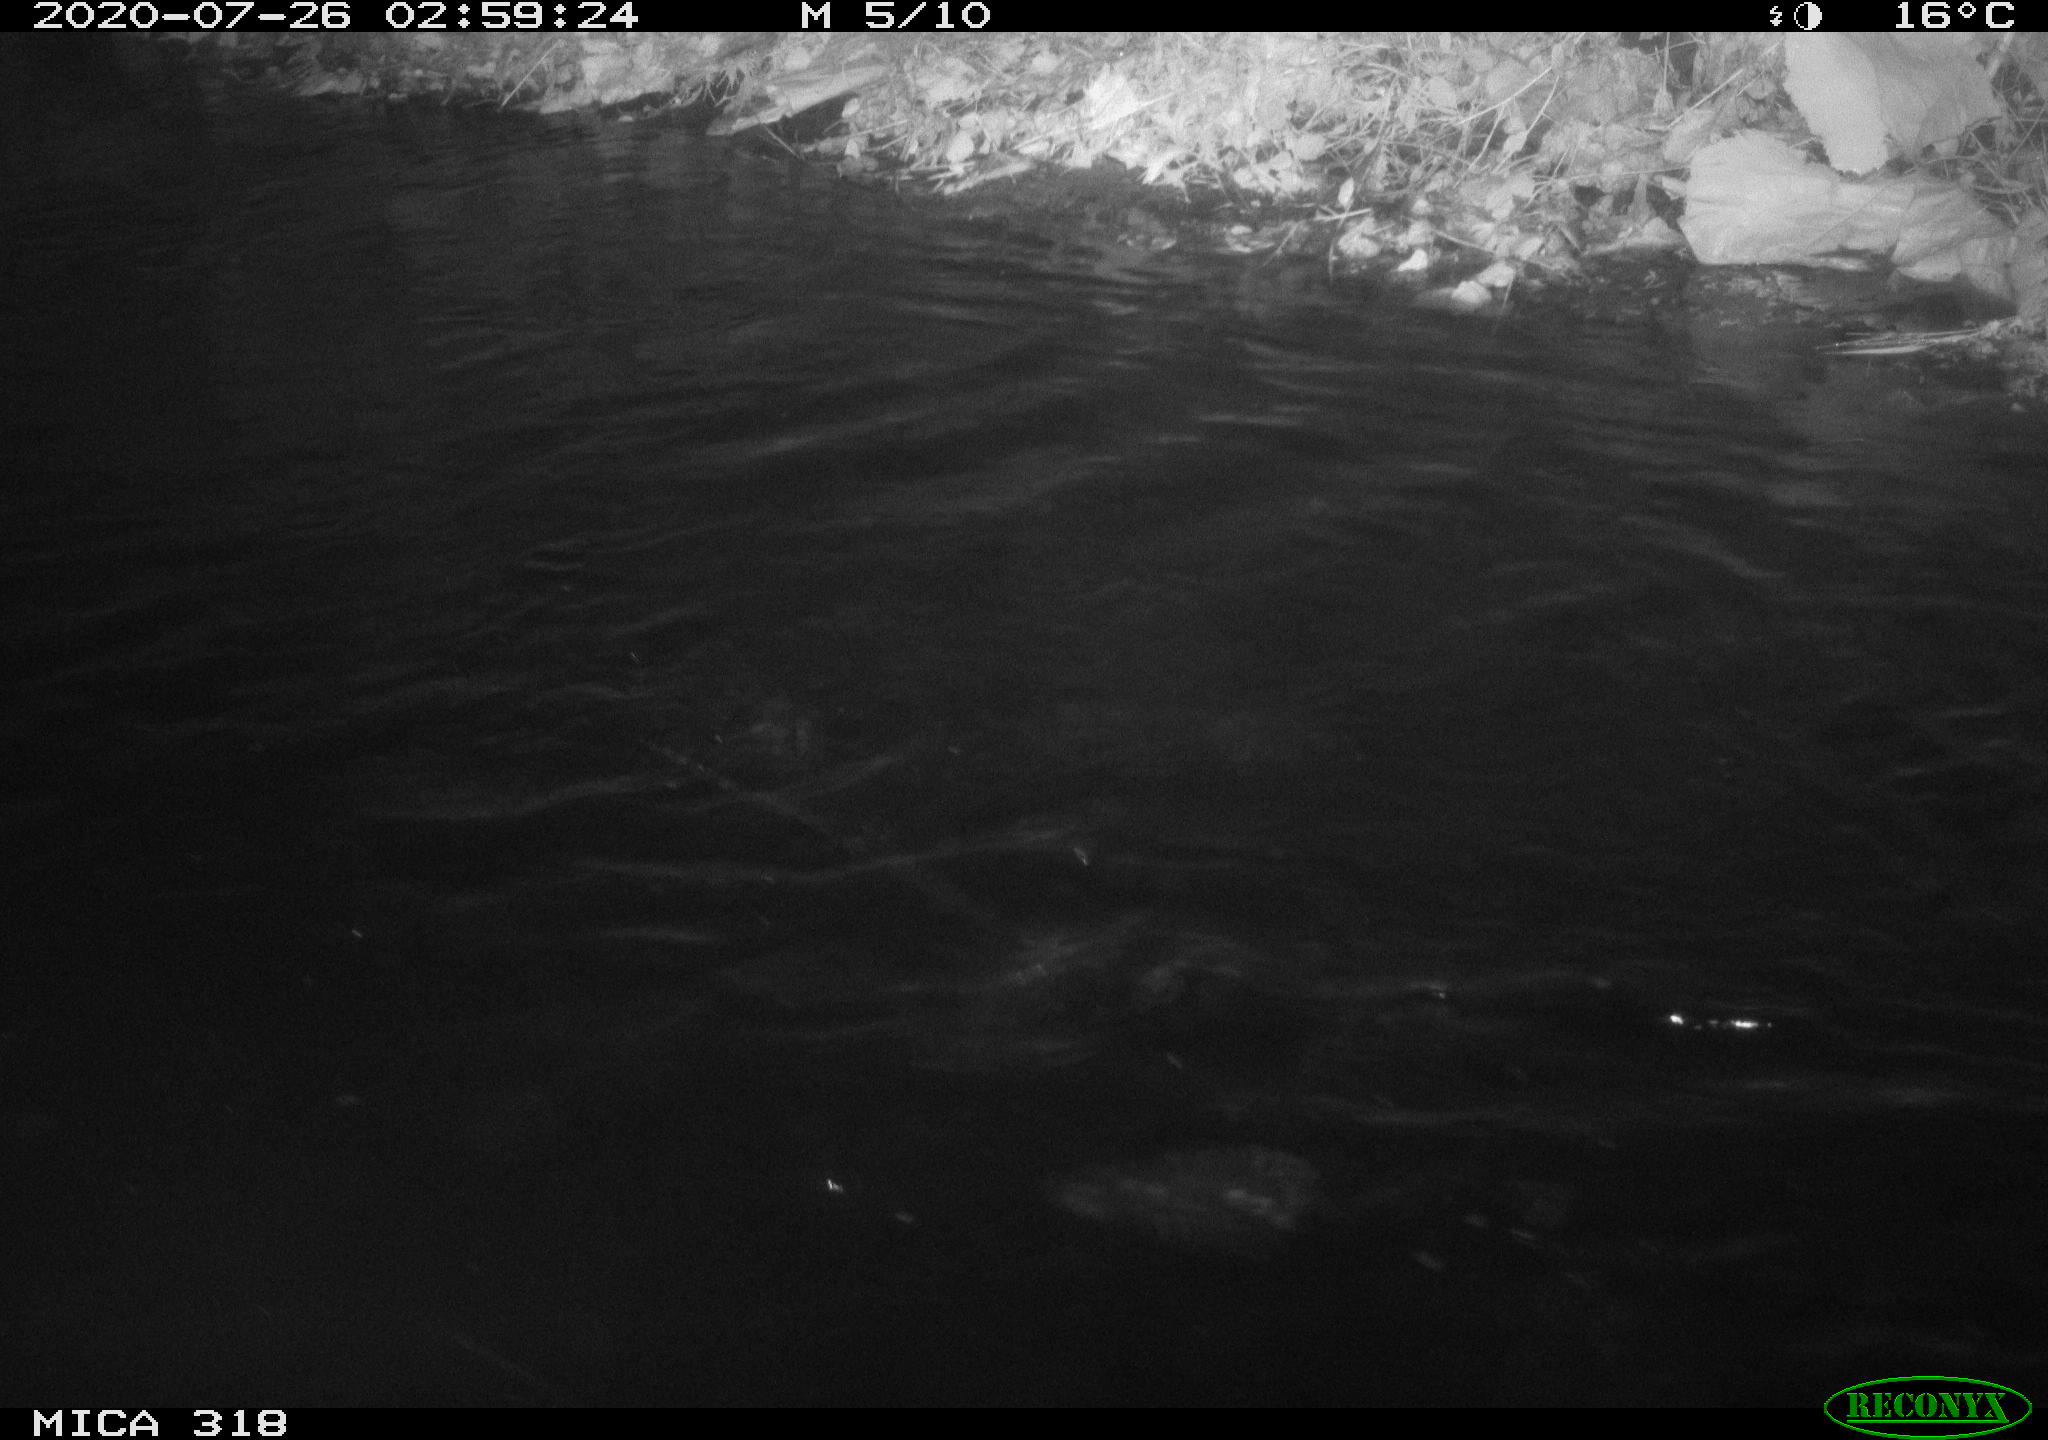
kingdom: Animalia
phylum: Chordata
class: Aves
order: Anseriformes
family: Anatidae
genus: Anas
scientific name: Anas platyrhynchos
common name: Mallard
